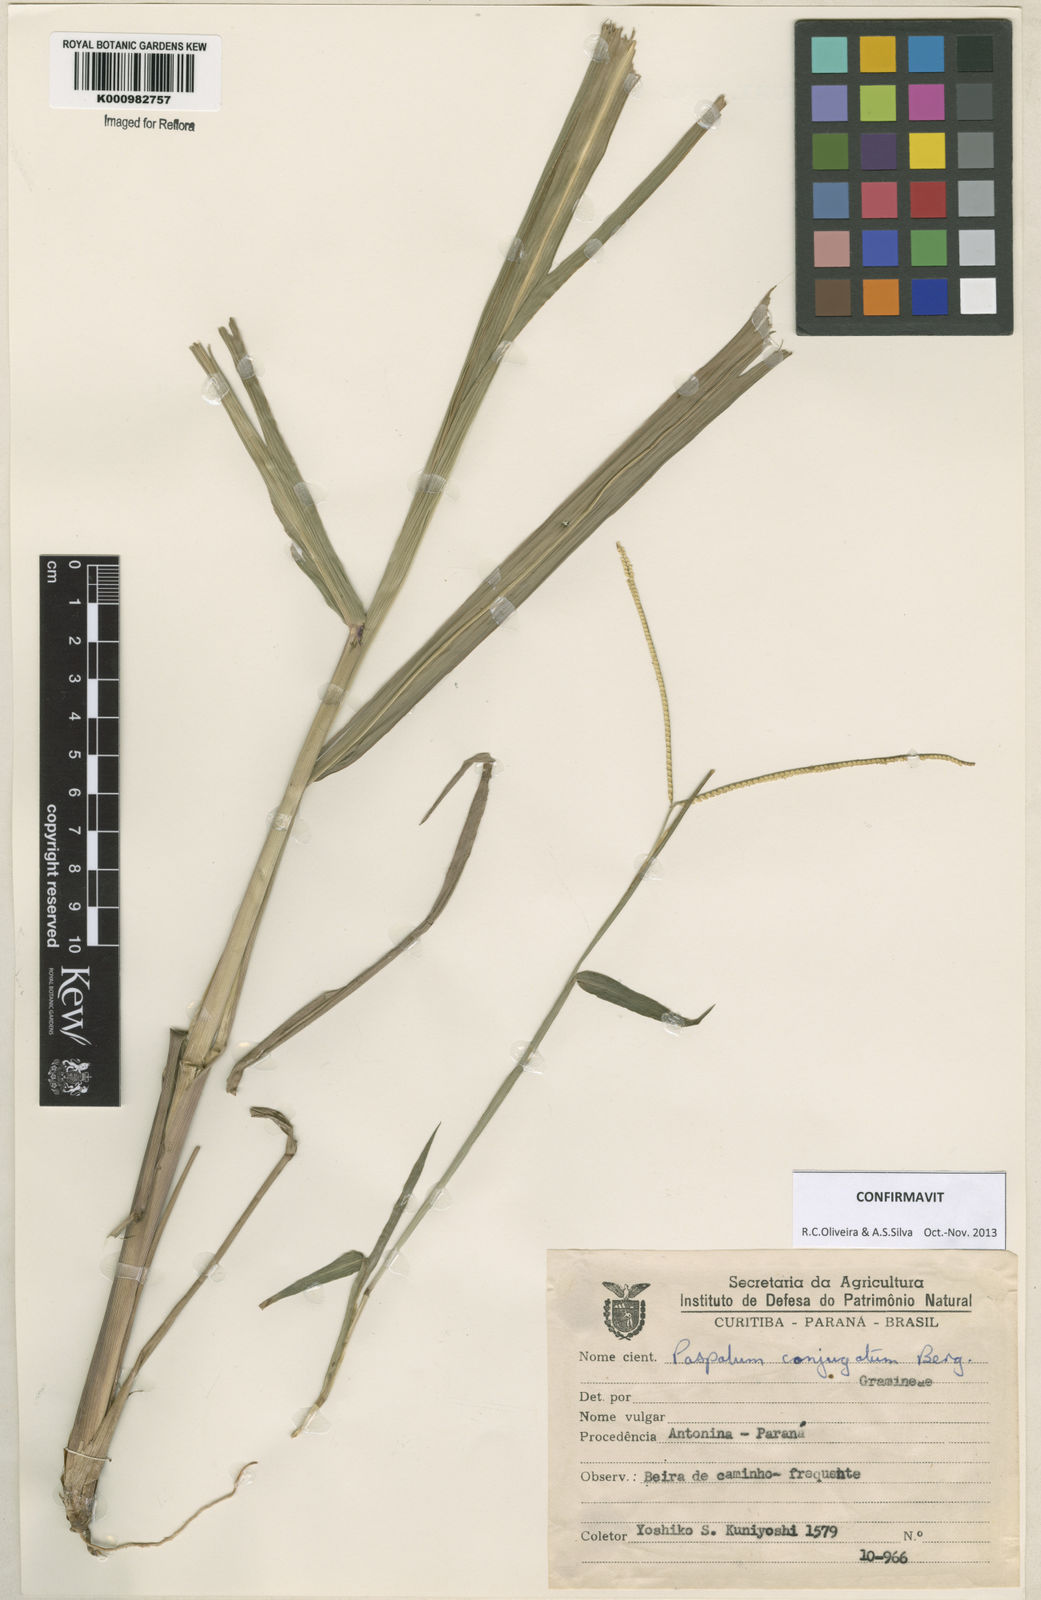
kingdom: Plantae
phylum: Tracheophyta
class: Liliopsida
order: Poales
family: Poaceae
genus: Paspalum
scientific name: Paspalum conjugatum
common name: Hilograss
